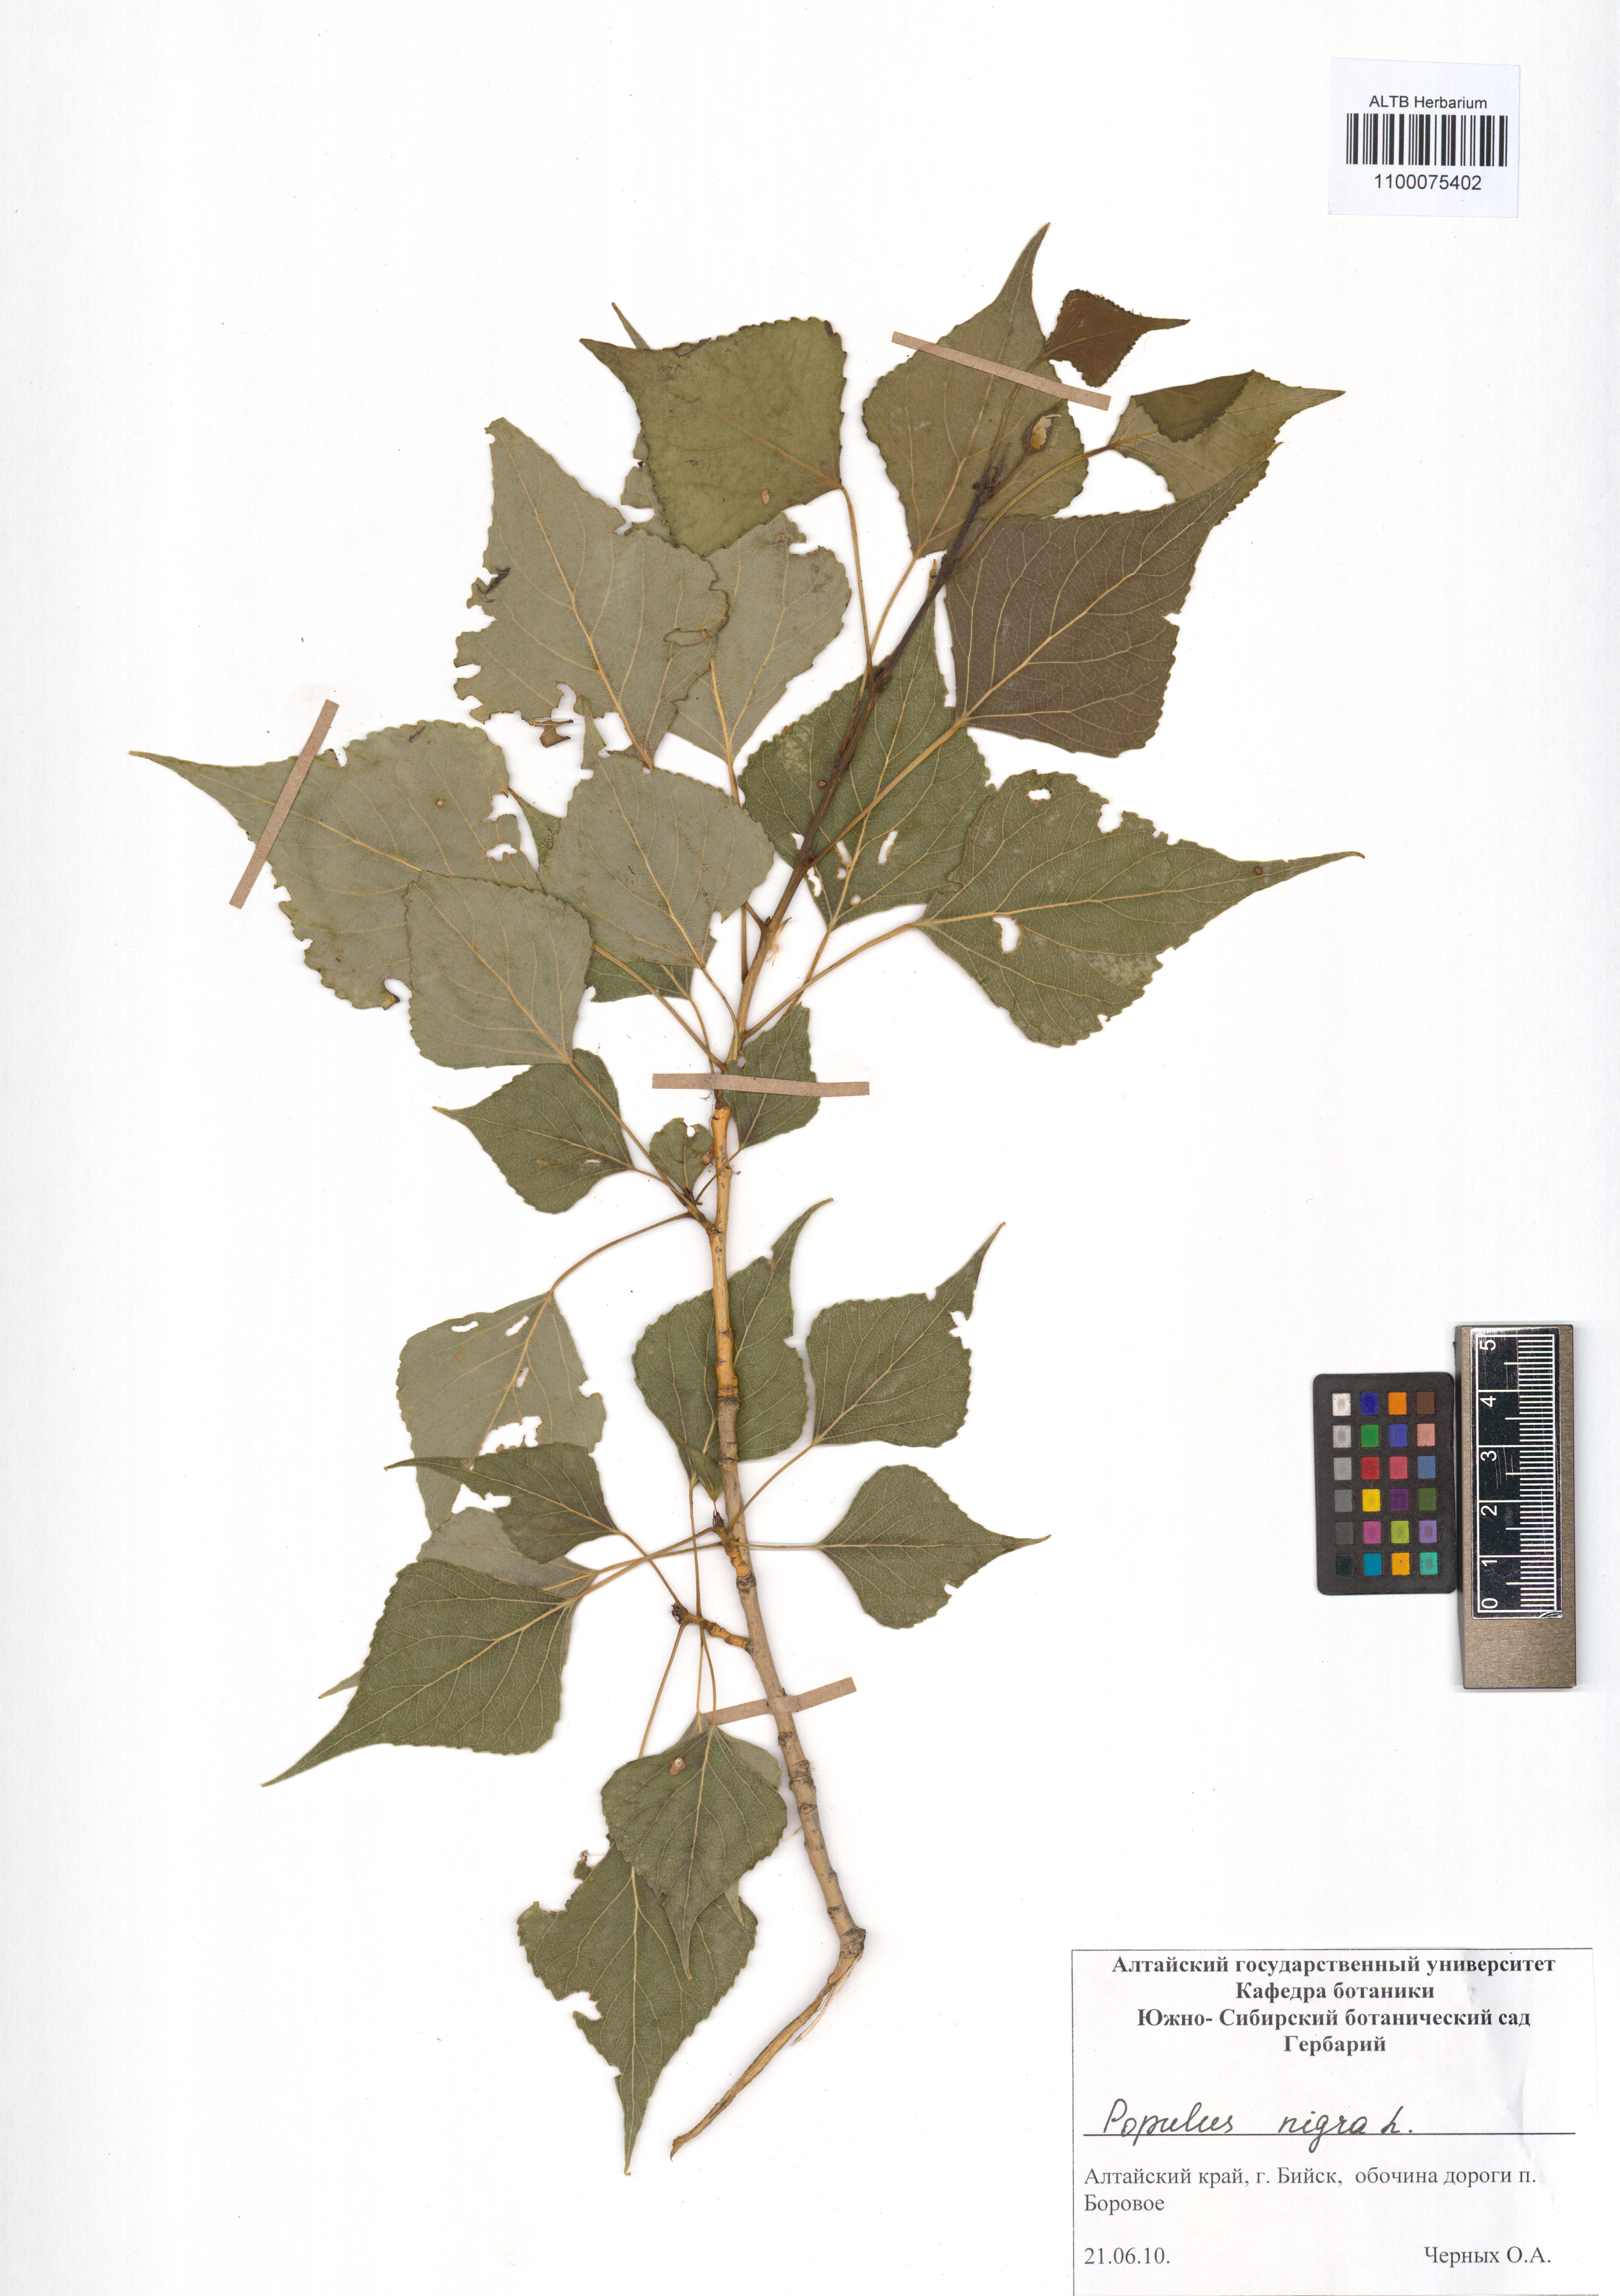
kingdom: Plantae
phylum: Tracheophyta
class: Magnoliopsida
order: Malpighiales
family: Salicaceae
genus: Populus
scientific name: Populus nigra
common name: Black poplar
